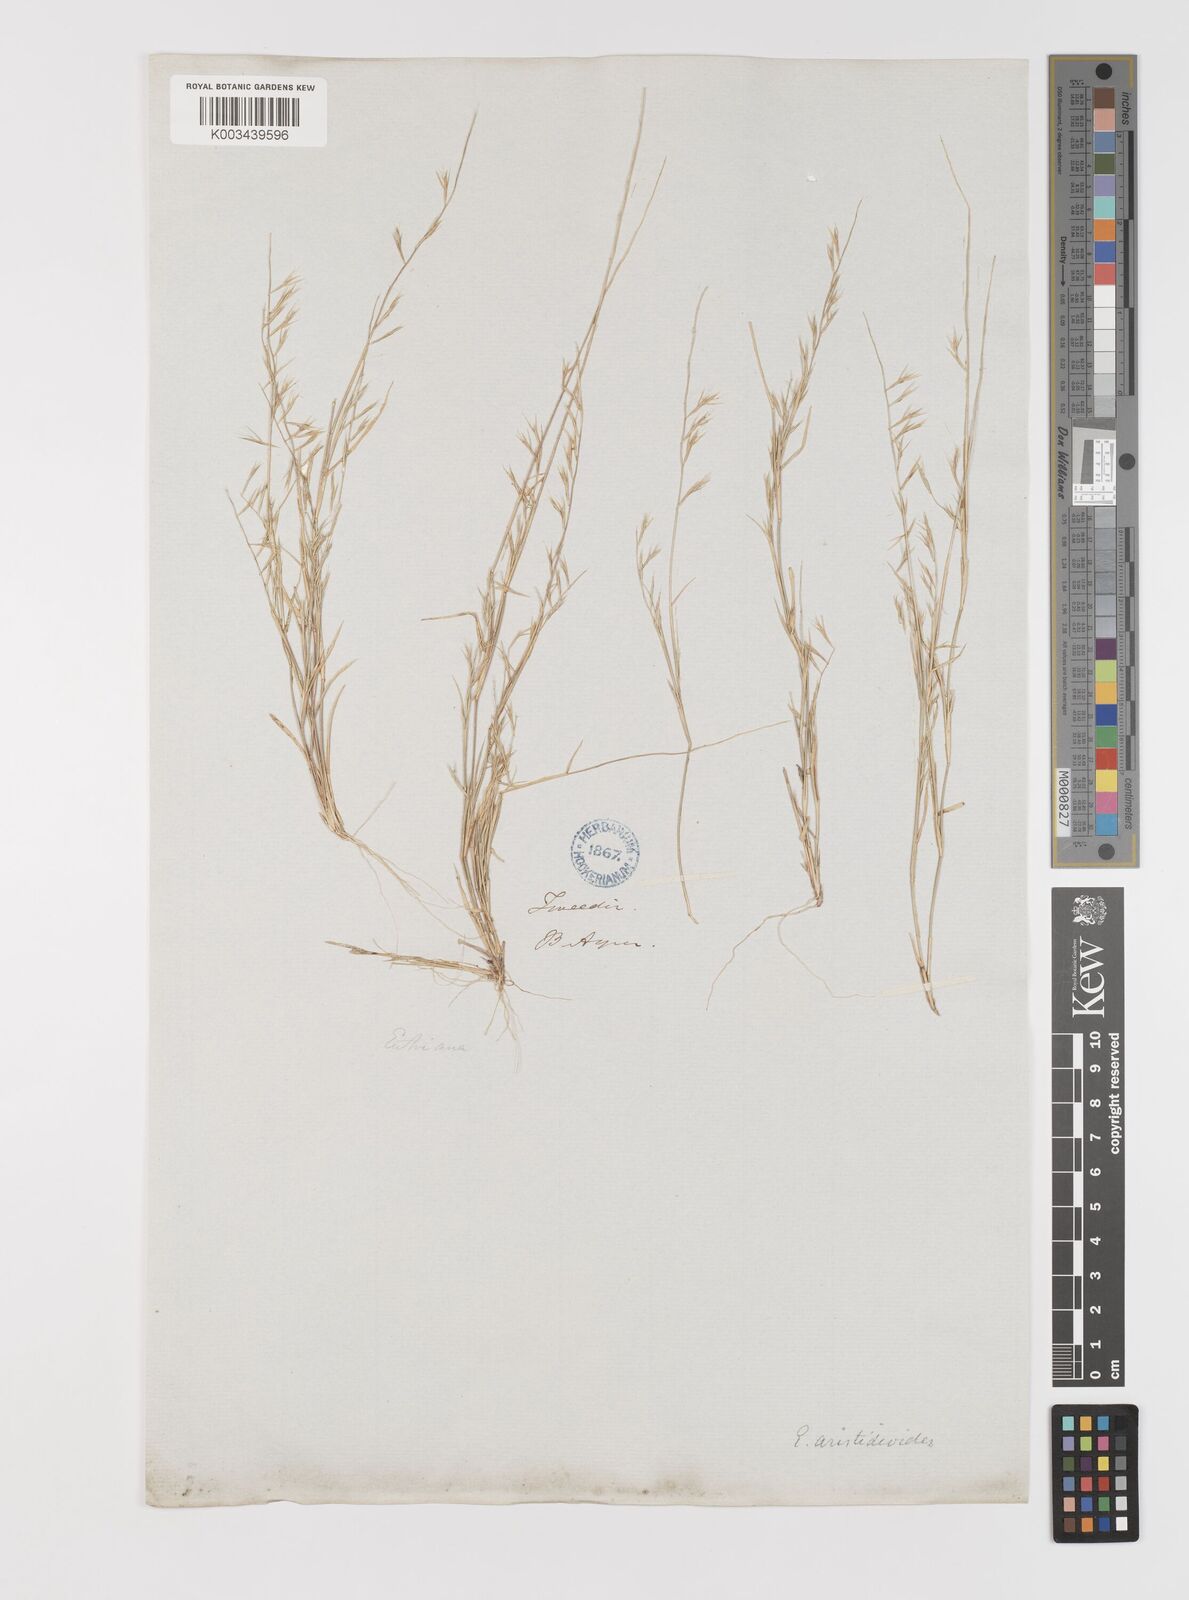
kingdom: Plantae
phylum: Tracheophyta
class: Liliopsida
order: Poales
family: Poaceae
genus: Bouteloua
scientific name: Bouteloua
